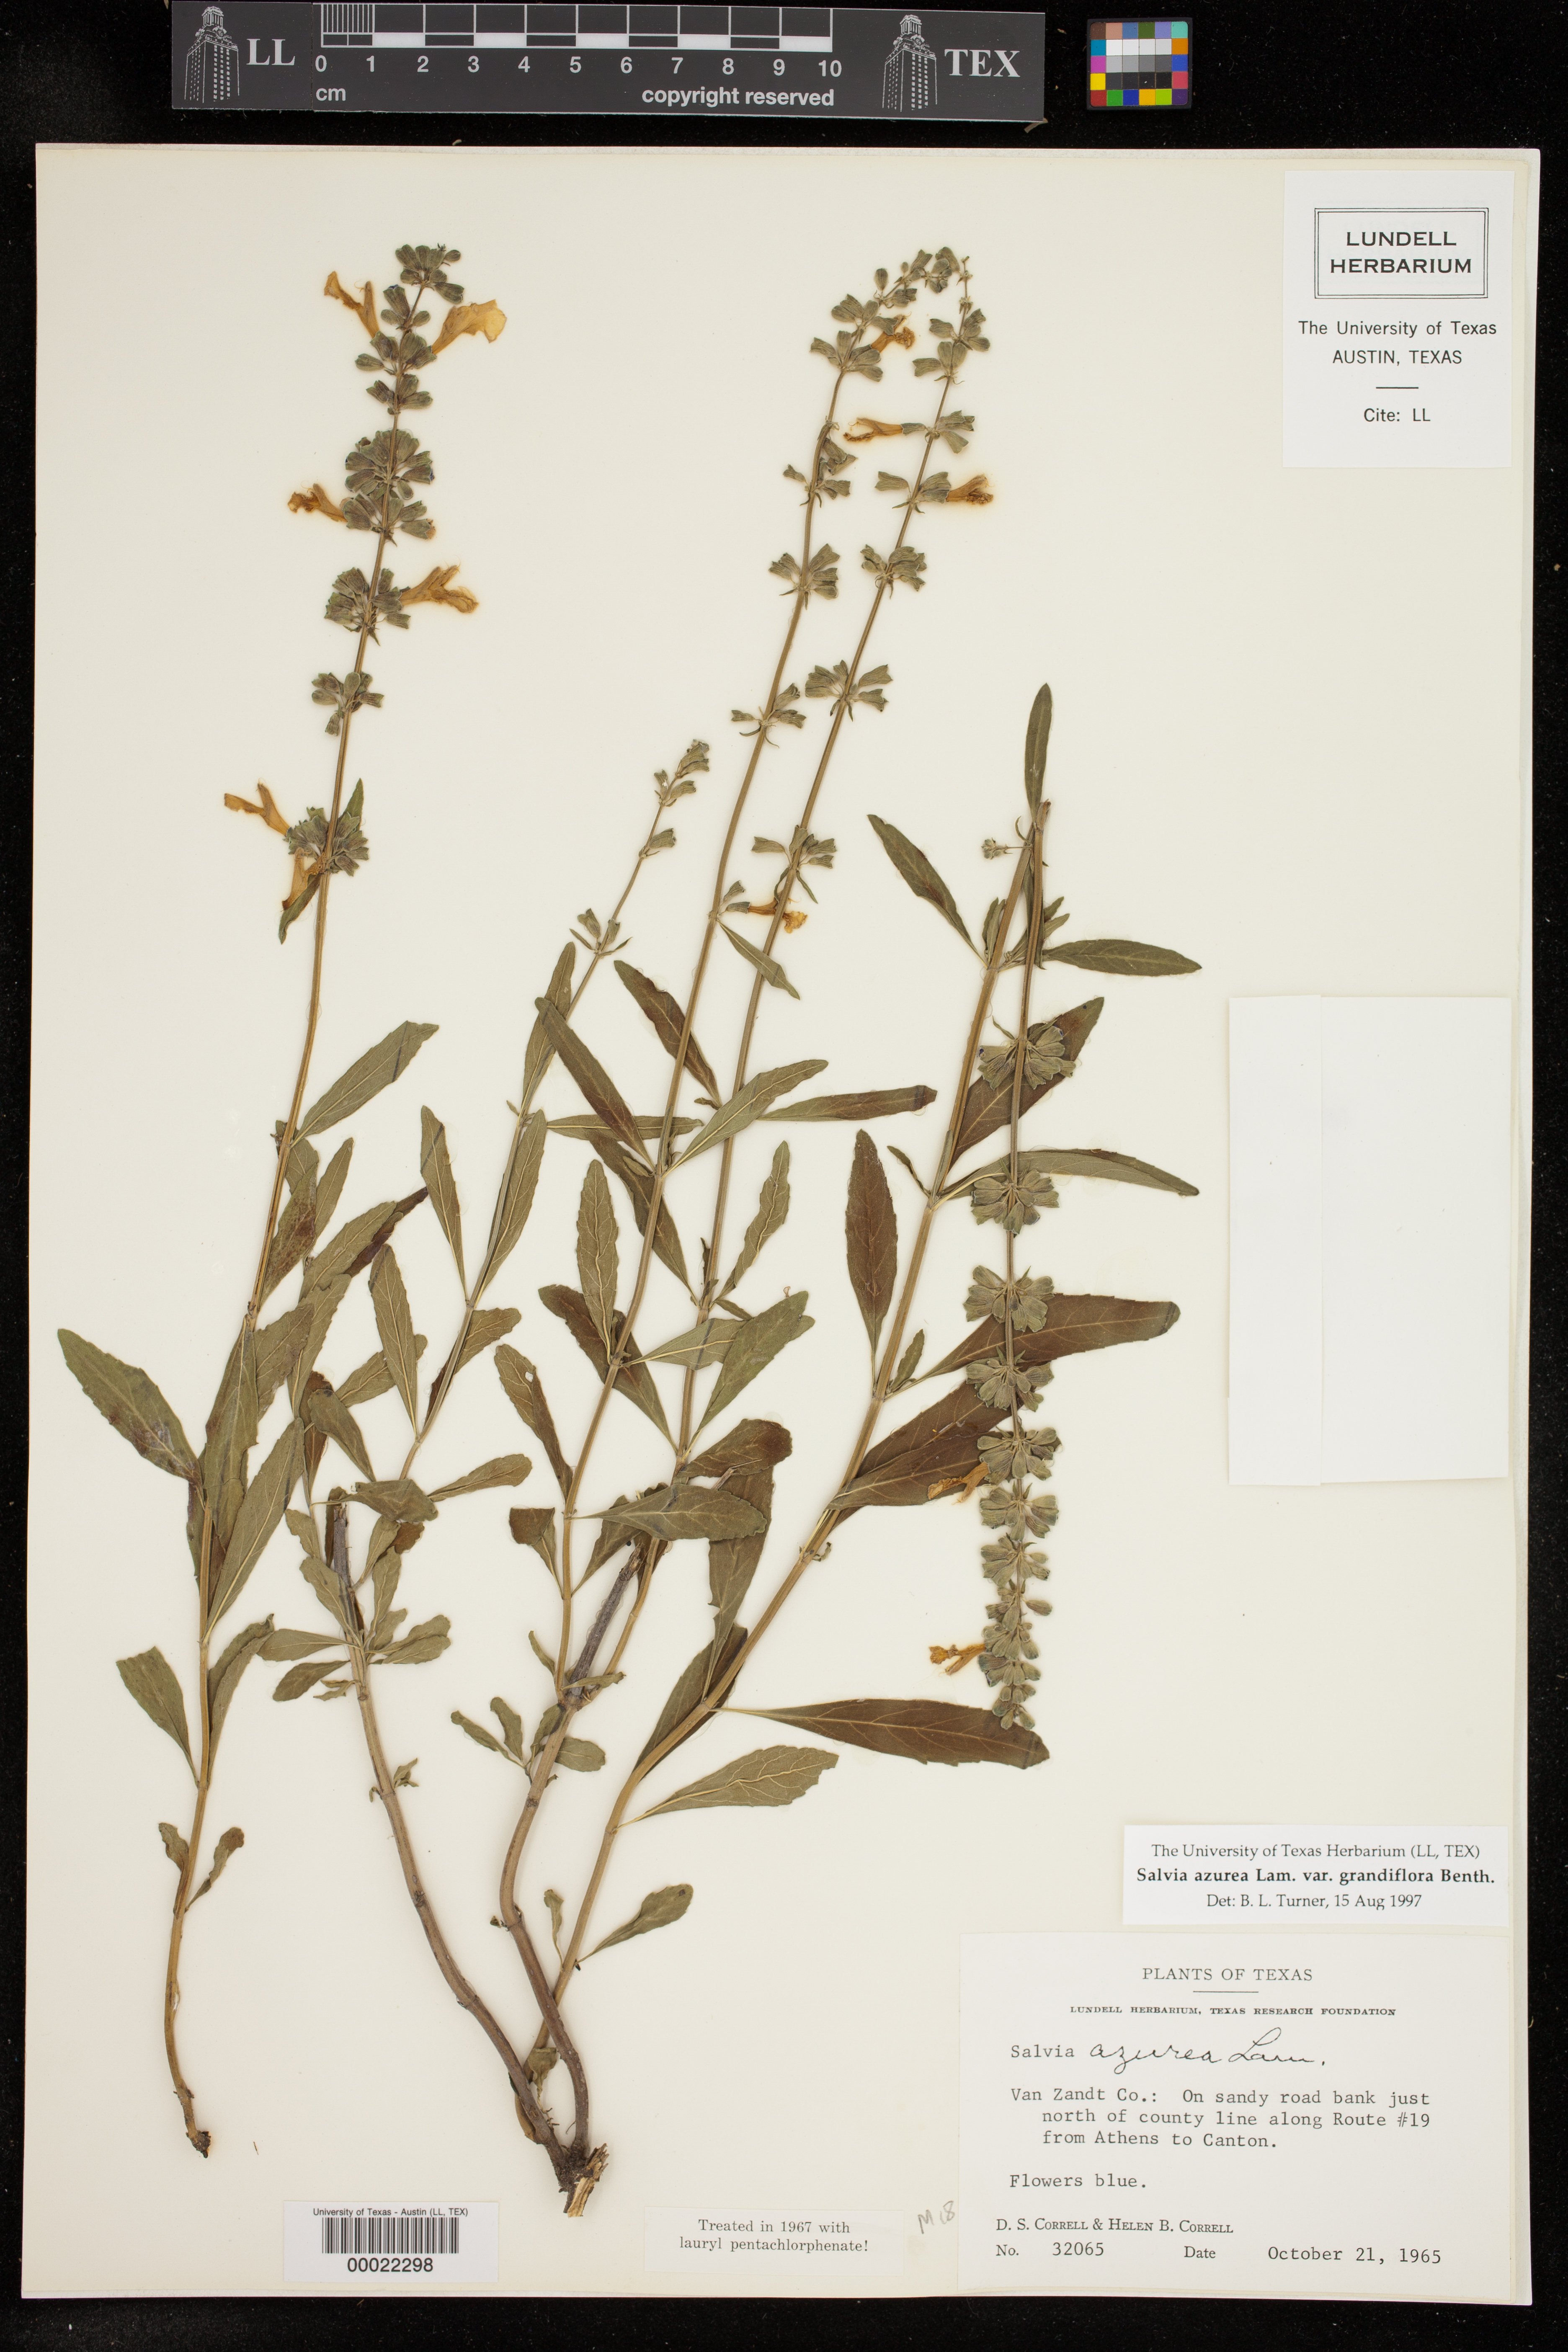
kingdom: Plantae
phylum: Tracheophyta
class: Magnoliopsida
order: Lamiales
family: Lamiaceae
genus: Salvia
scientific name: Salvia azurea
